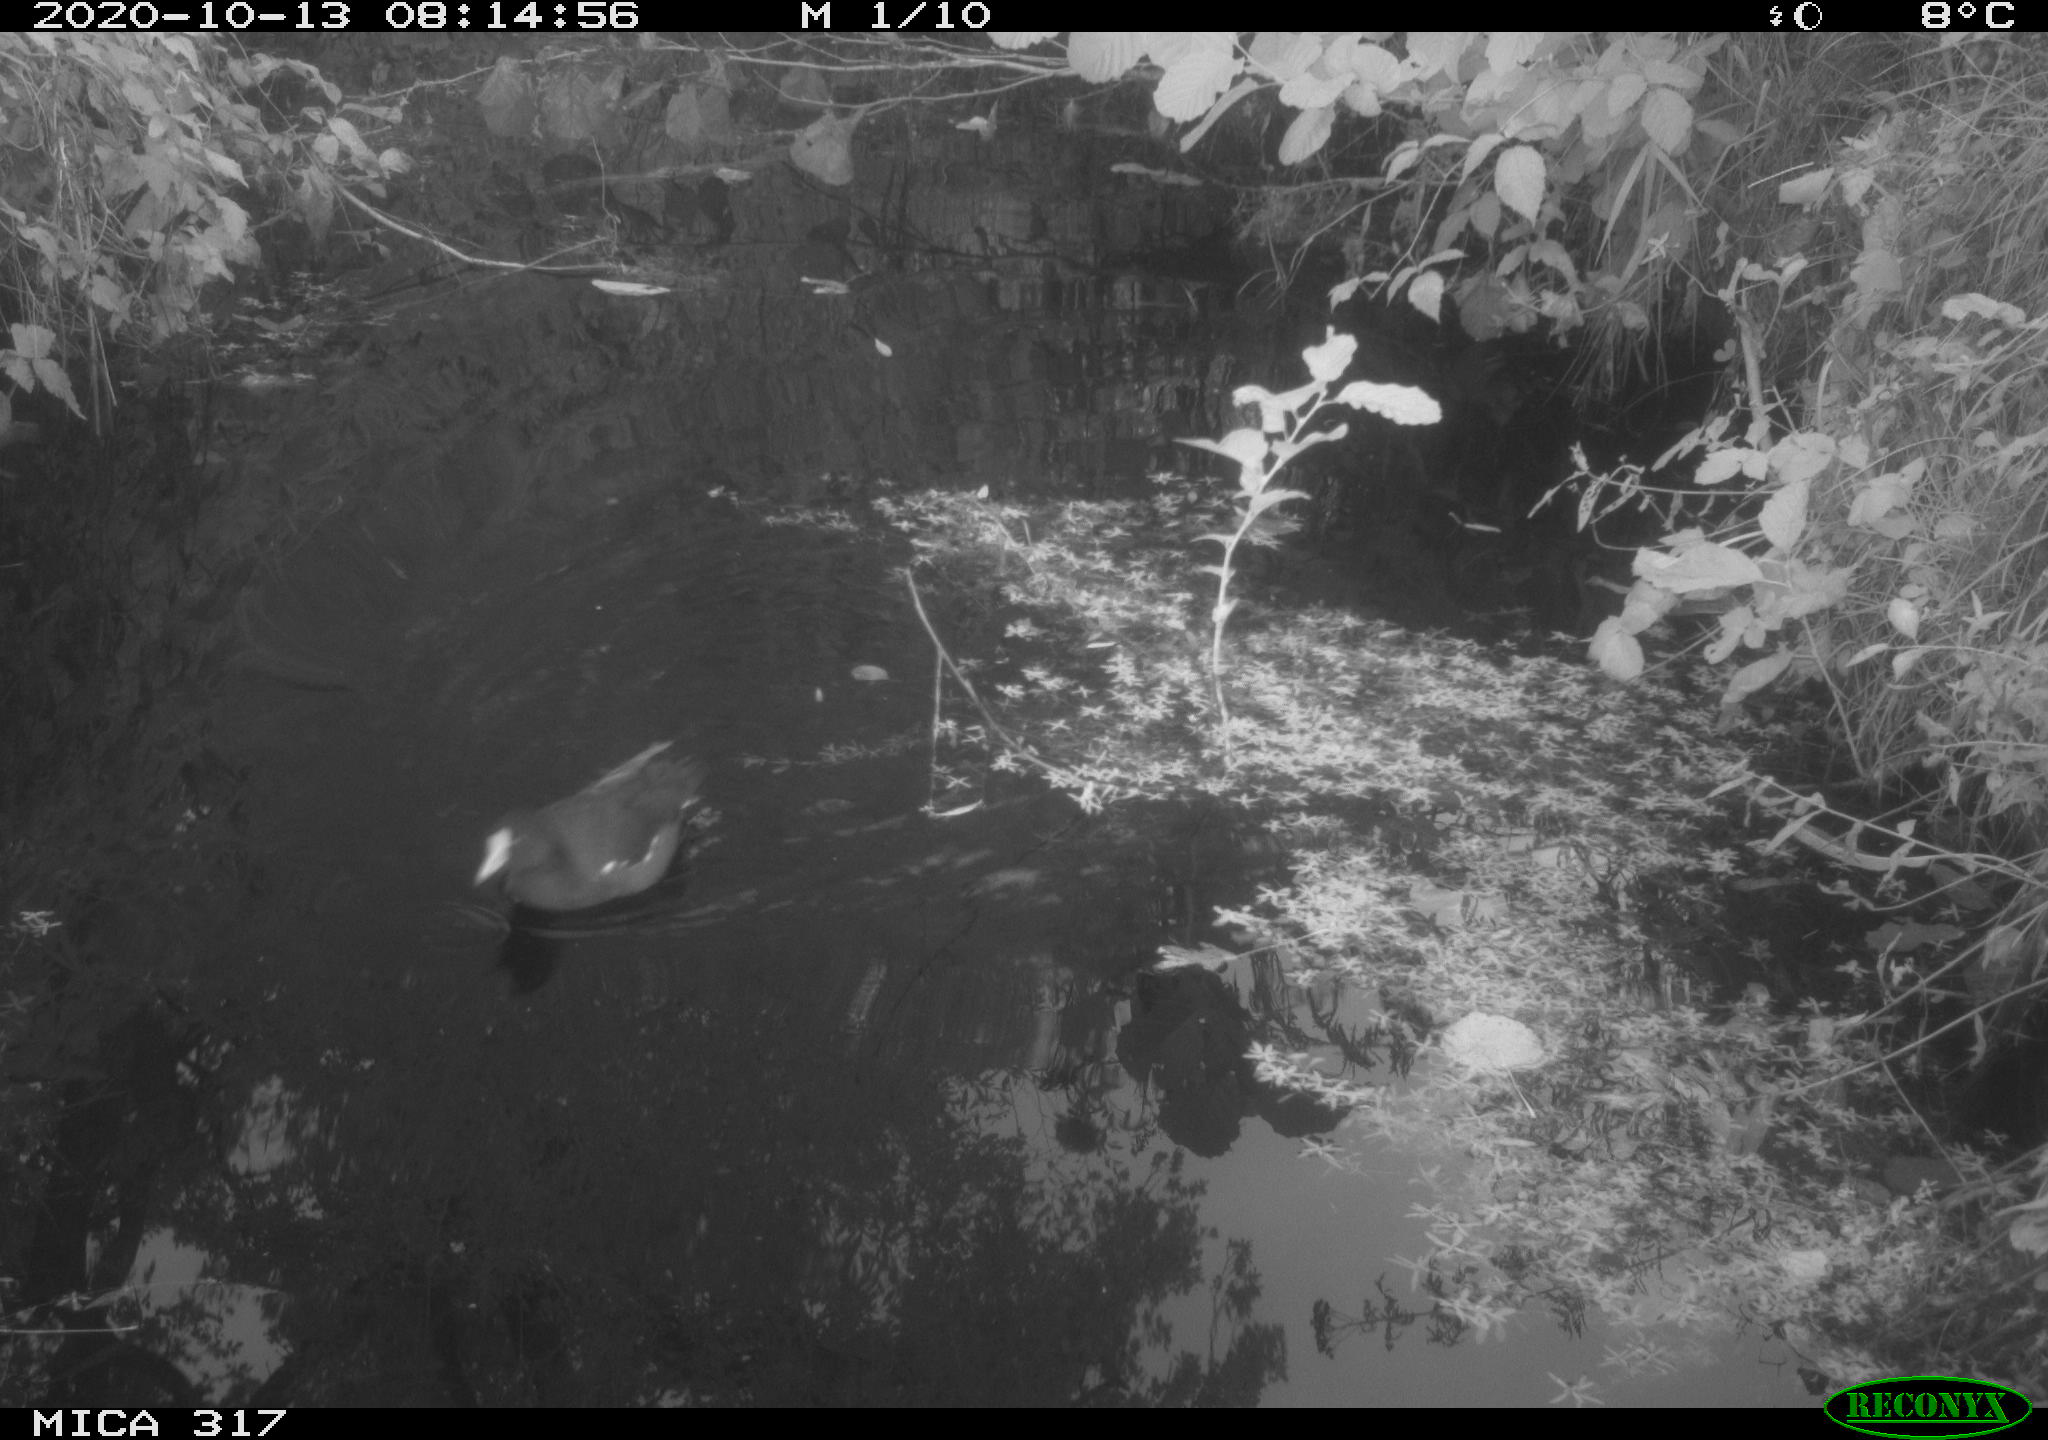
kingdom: Animalia
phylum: Chordata
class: Aves
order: Gruiformes
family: Rallidae
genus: Gallinula
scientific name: Gallinula chloropus
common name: Common moorhen
